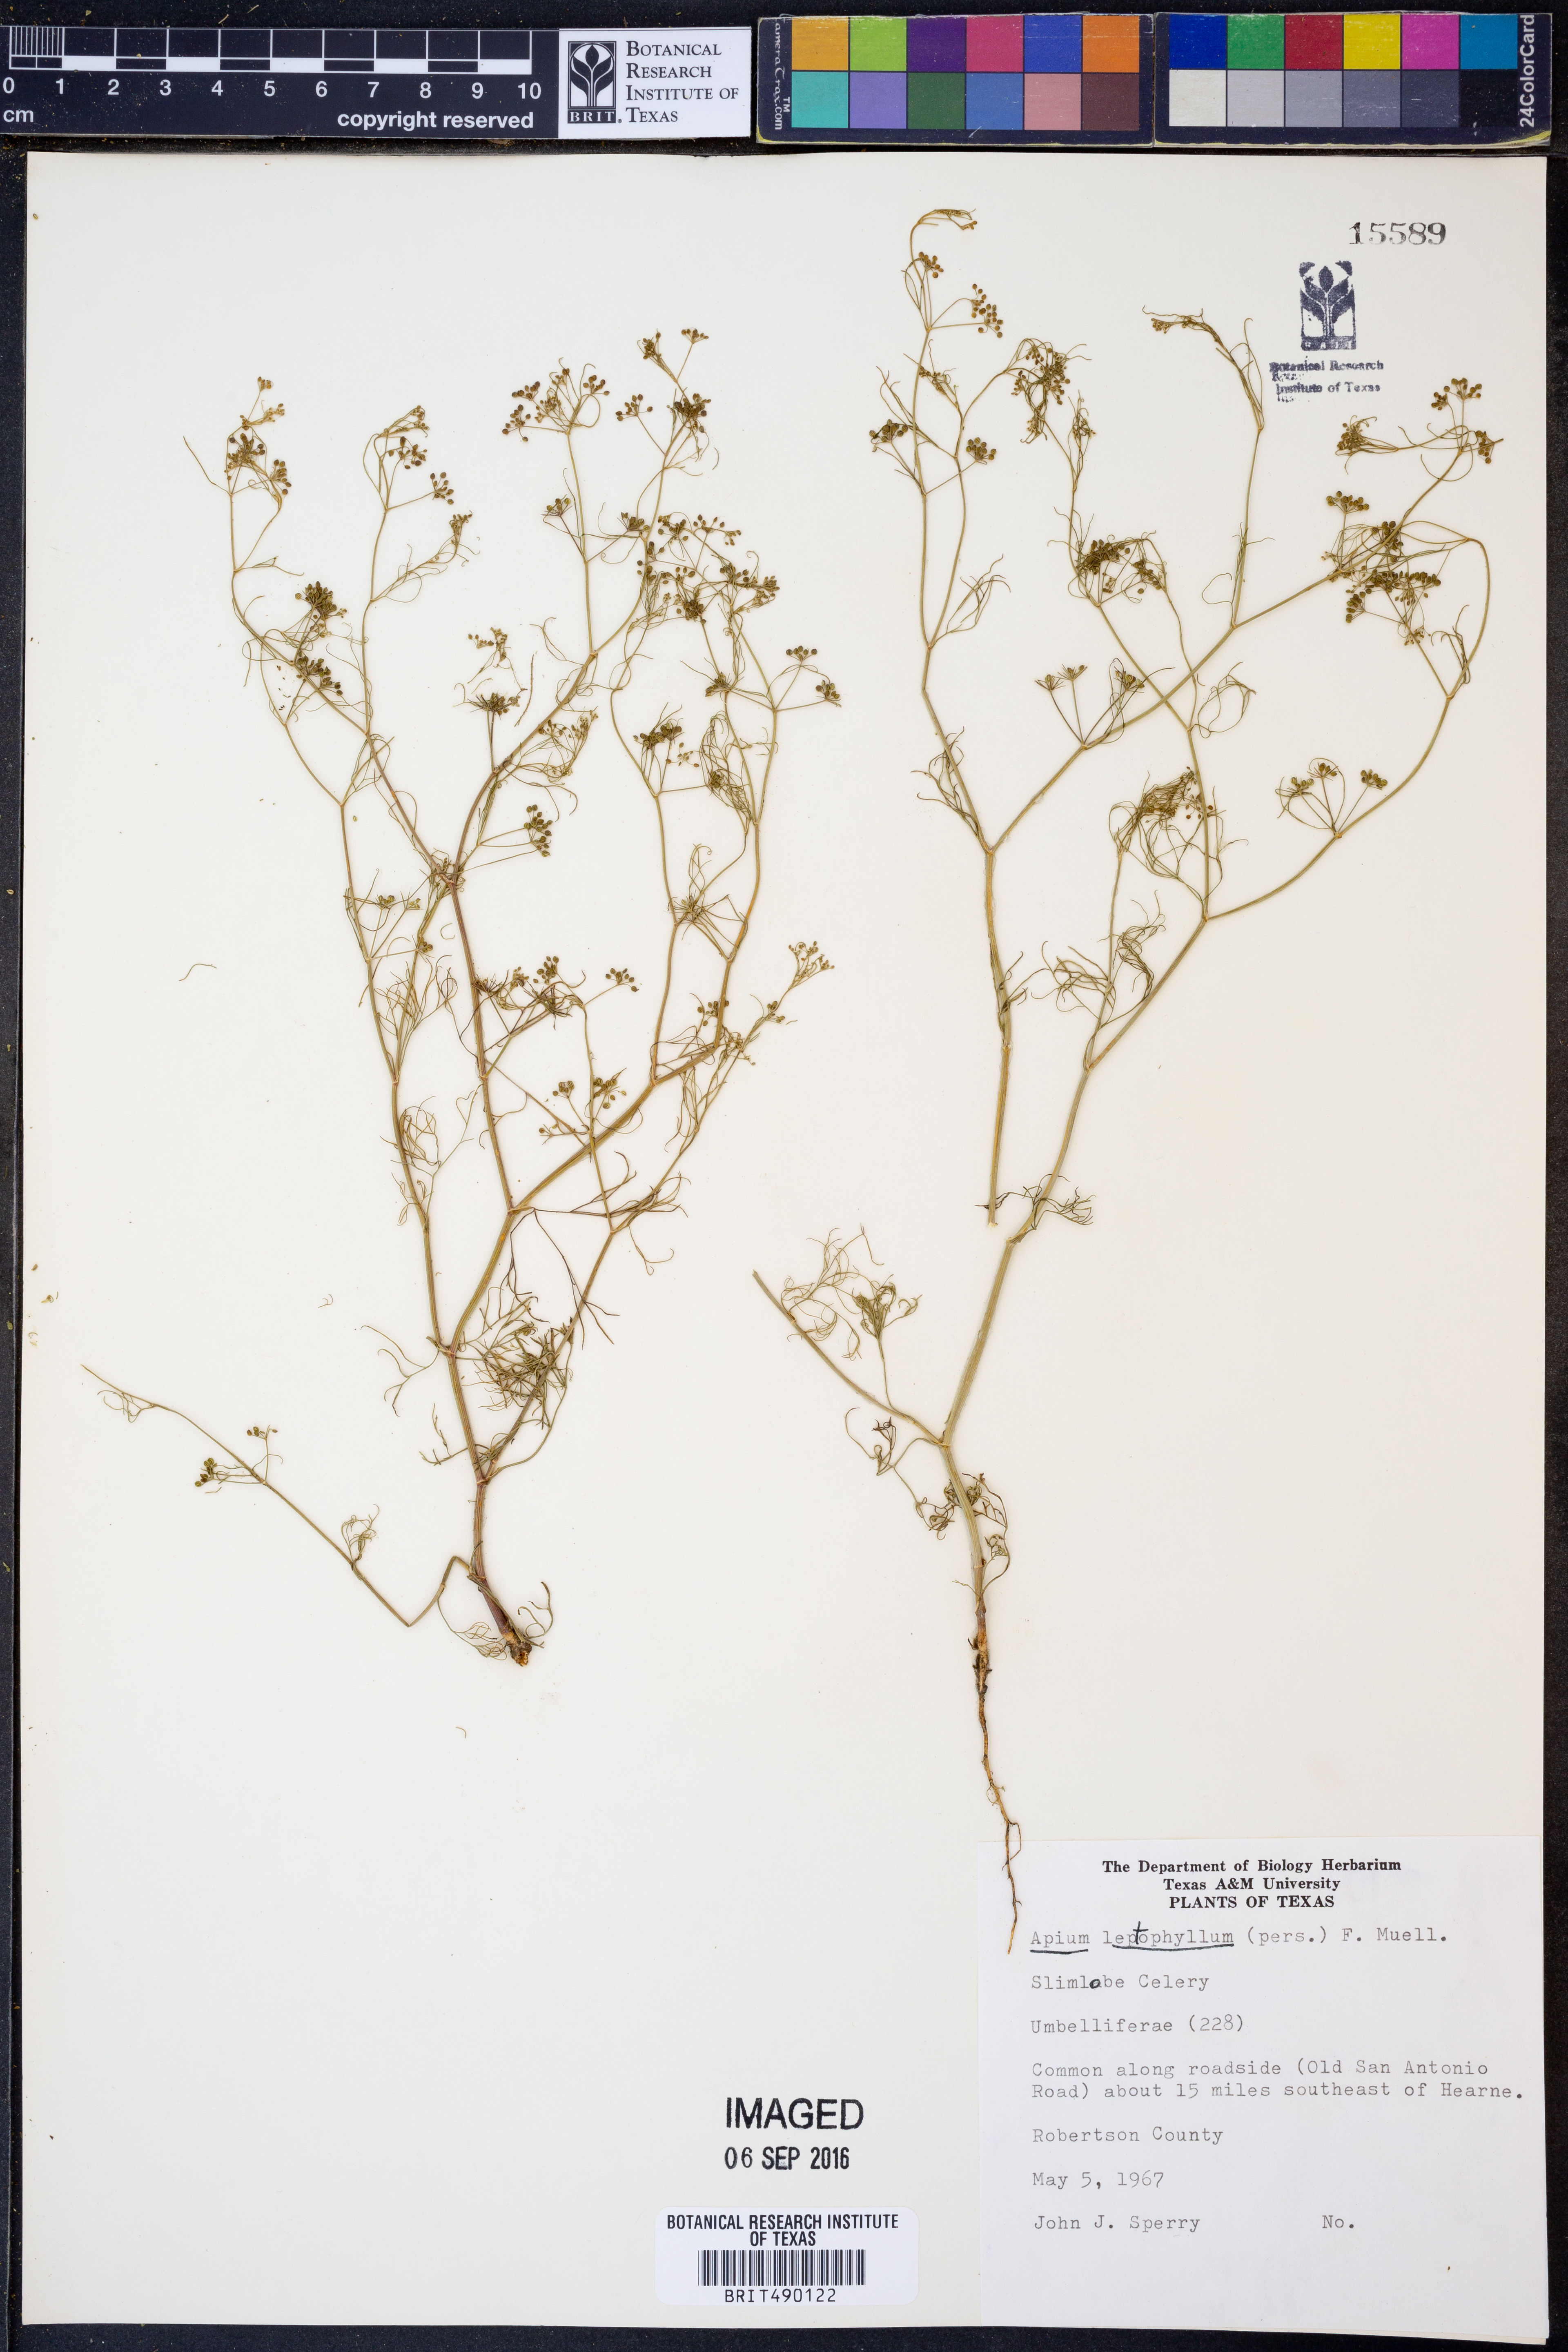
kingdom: Plantae
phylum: Tracheophyta
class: Magnoliopsida
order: Apiales
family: Apiaceae
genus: Cyclospermum
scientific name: Cyclospermum leptophyllum
